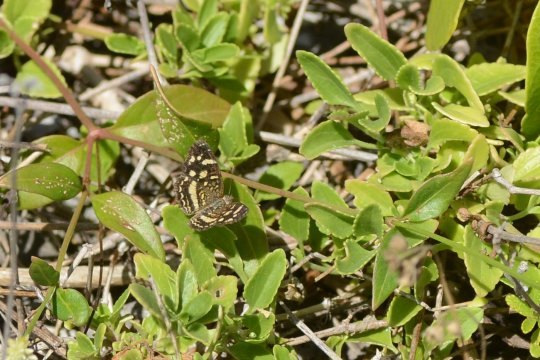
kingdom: Animalia
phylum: Arthropoda
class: Insecta
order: Lepidoptera
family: Nymphalidae
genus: Anthanassa
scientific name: Anthanassa tulcis
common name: Pale-banded Crescent
